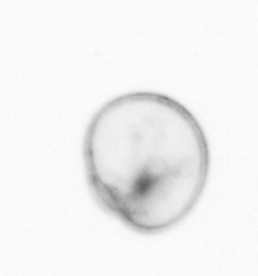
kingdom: Chromista
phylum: Myzozoa
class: Dinophyceae
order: Noctilucales
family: Noctilucaceae
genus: Noctiluca
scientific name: Noctiluca scintillans
